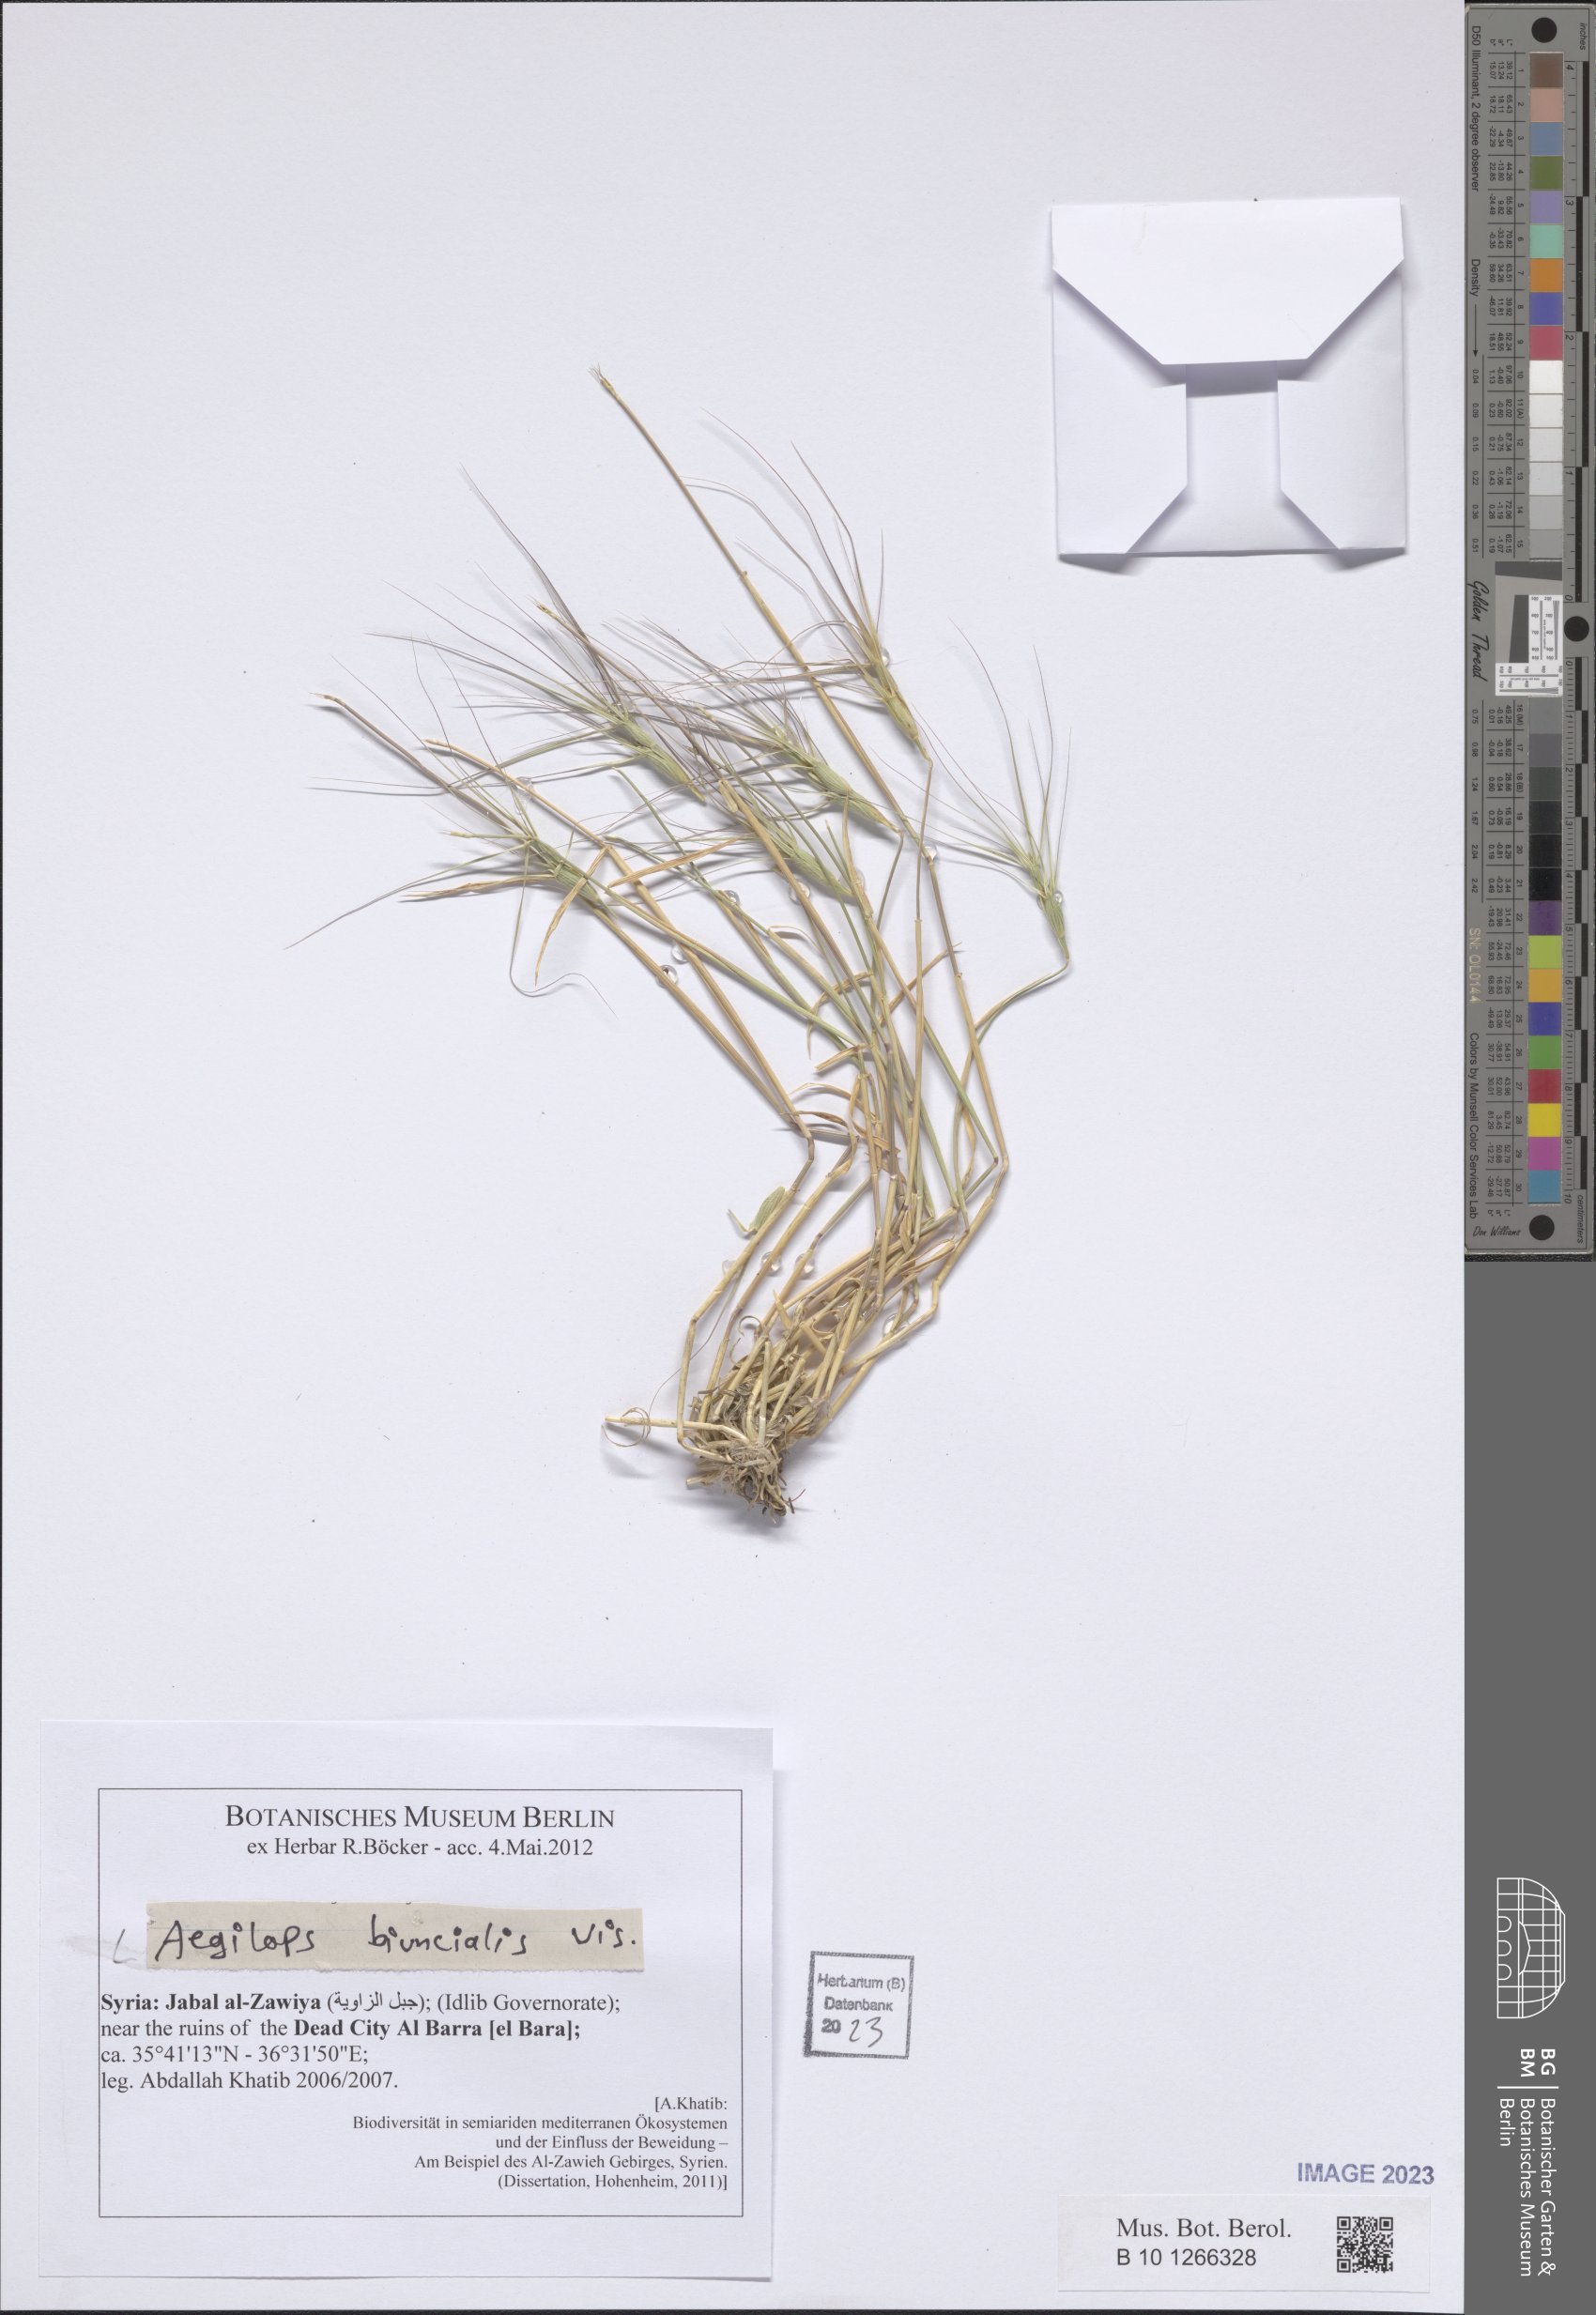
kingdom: Plantae
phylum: Tracheophyta
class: Liliopsida
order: Poales
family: Poaceae
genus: Aegilops
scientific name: Aegilops biuncialis
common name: Mediterranean aegilops
